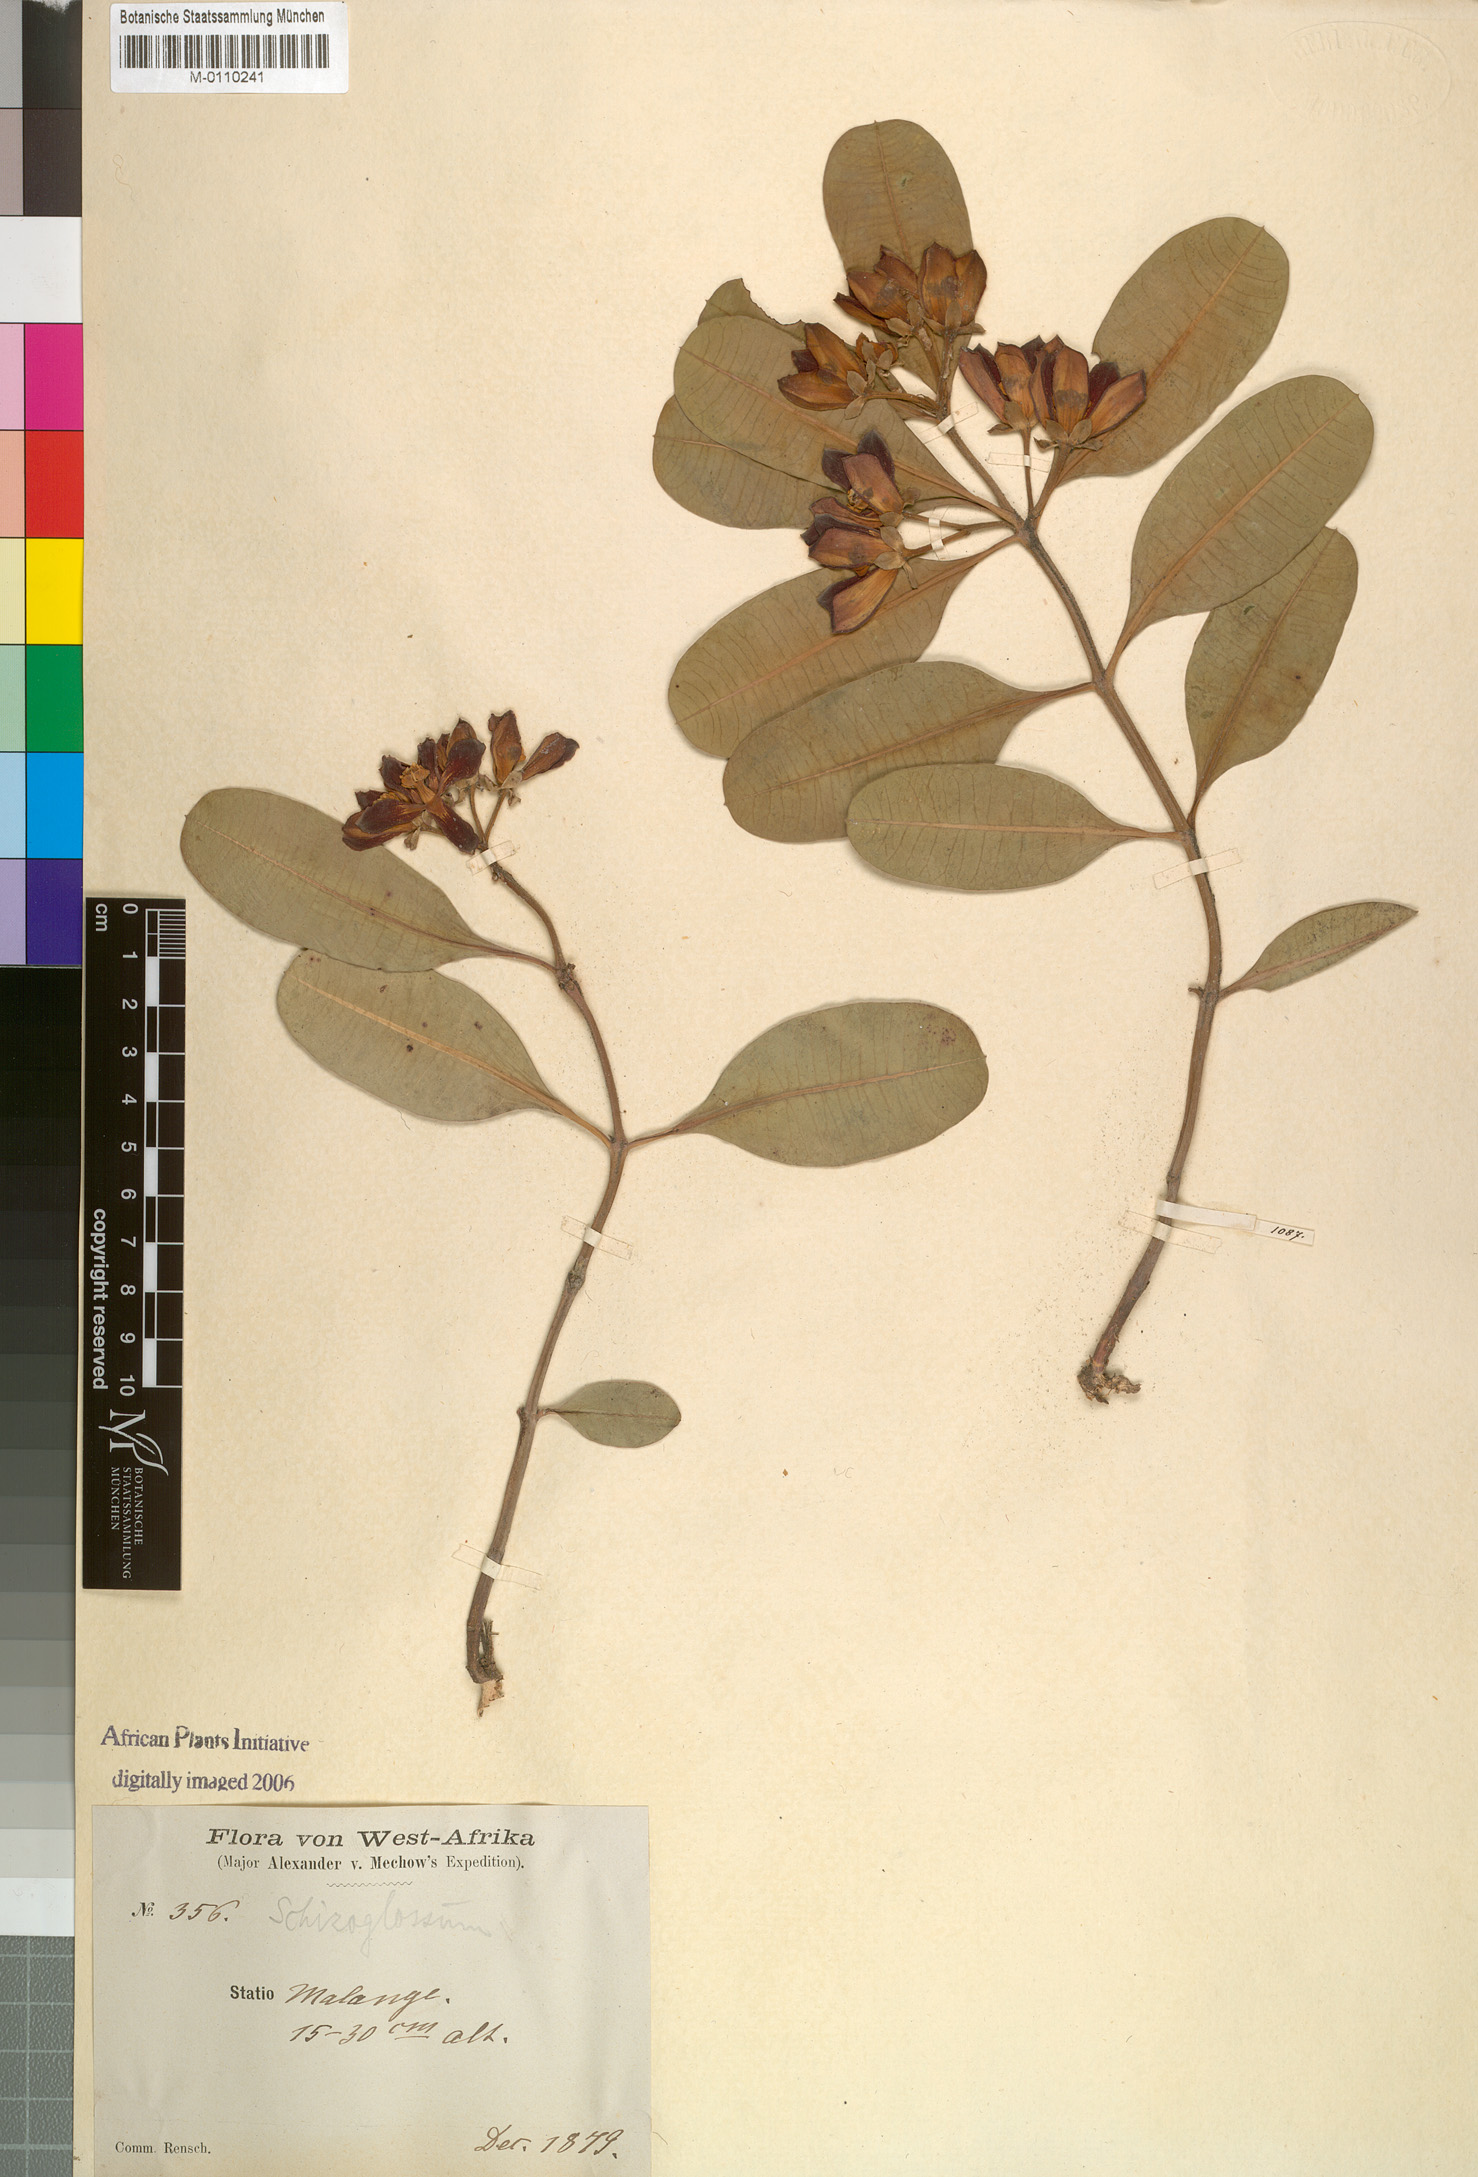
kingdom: Plantae
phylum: Tracheophyta
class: Magnoliopsida
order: Gentianales
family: Apocynaceae
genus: Glossostelma
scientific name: Glossostelma spathulatum
